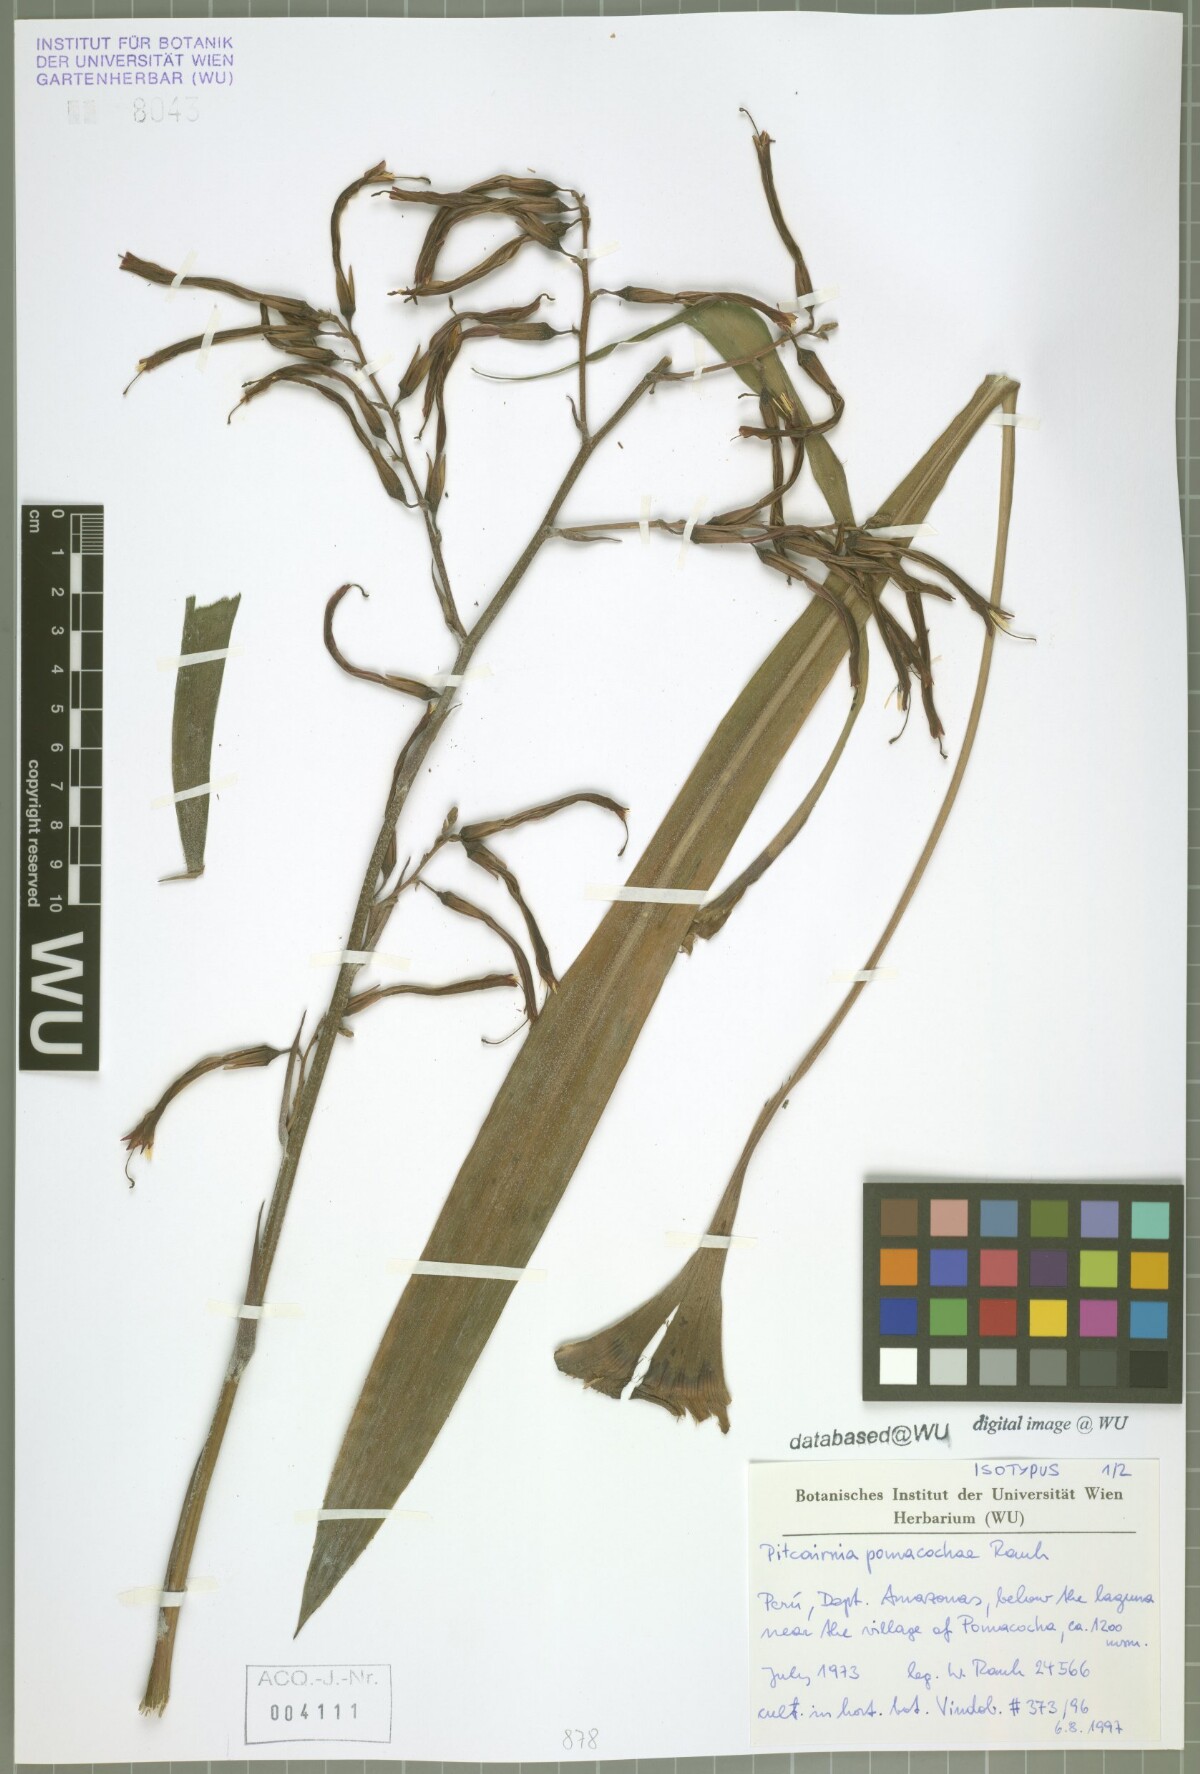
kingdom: Plantae
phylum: Tracheophyta
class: Liliopsida
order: Poales
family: Bromeliaceae
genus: Pitcairnia
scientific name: Pitcairnia pomacochae
